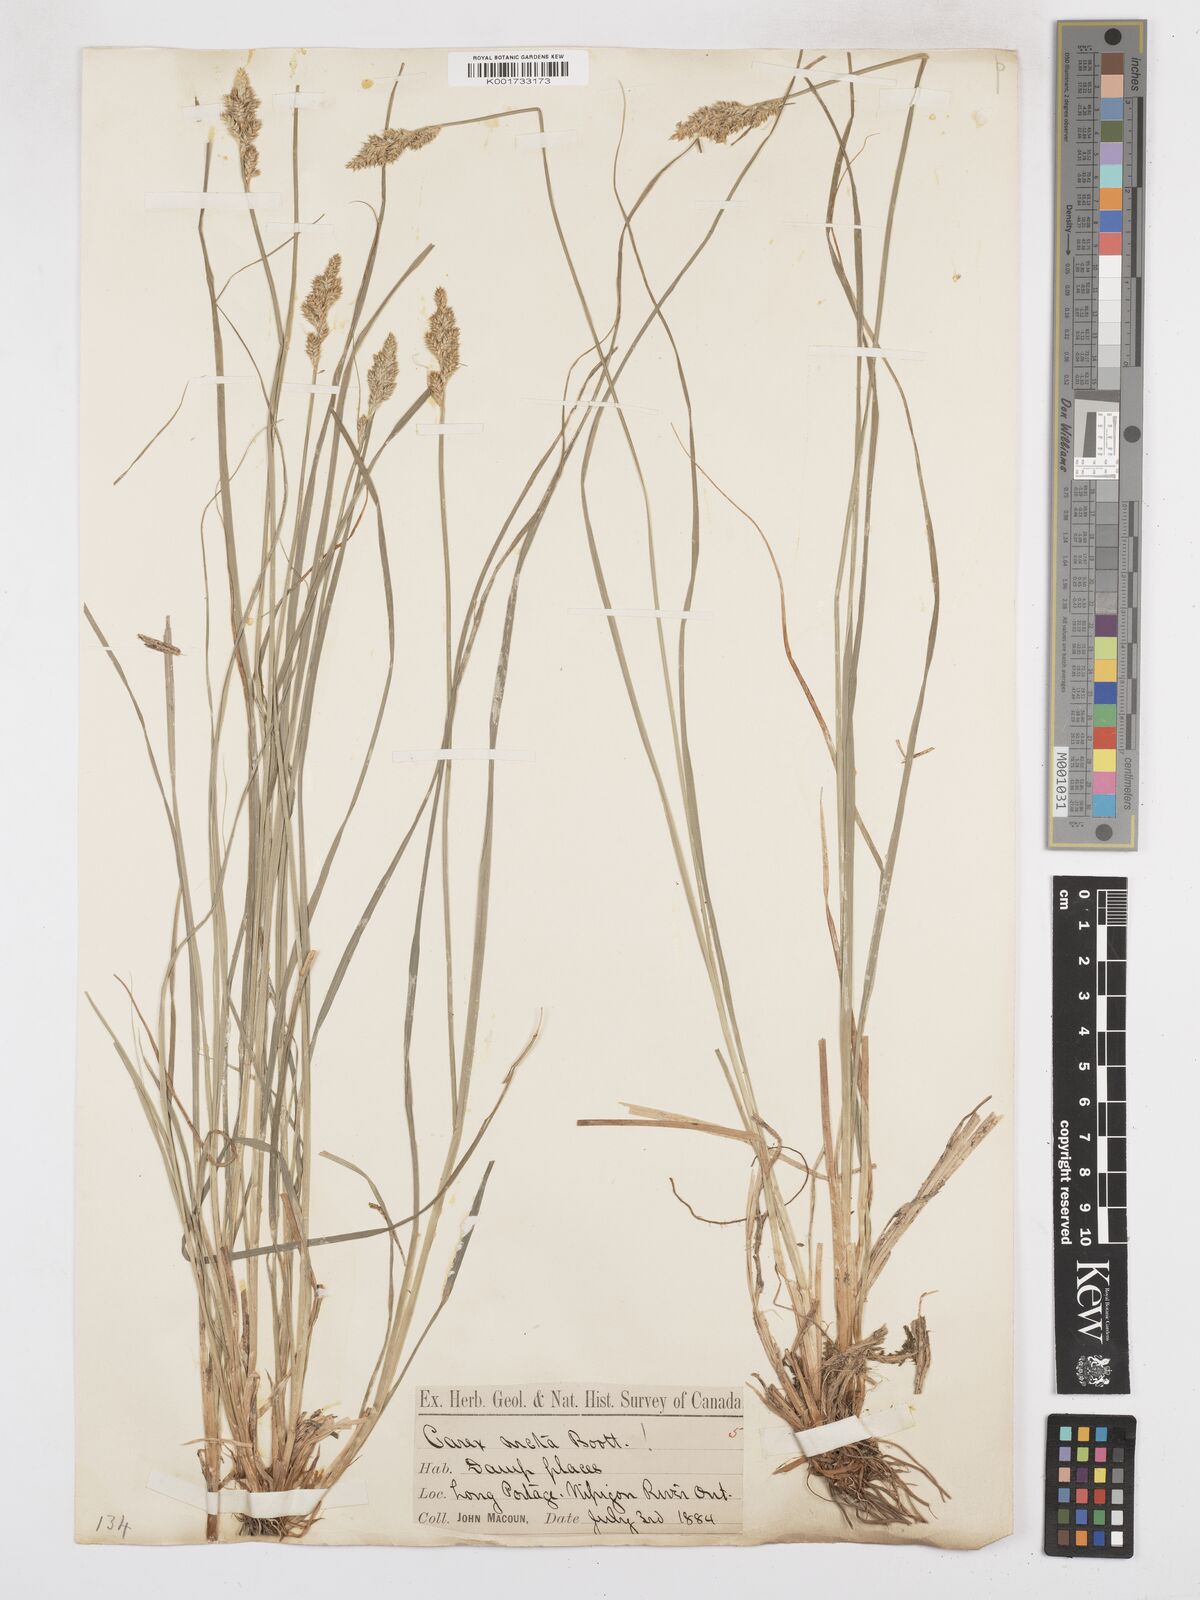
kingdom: Plantae
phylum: Tracheophyta
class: Liliopsida
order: Poales
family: Cyperaceae
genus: Carex
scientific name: Carex arcta
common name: Bear sedge
